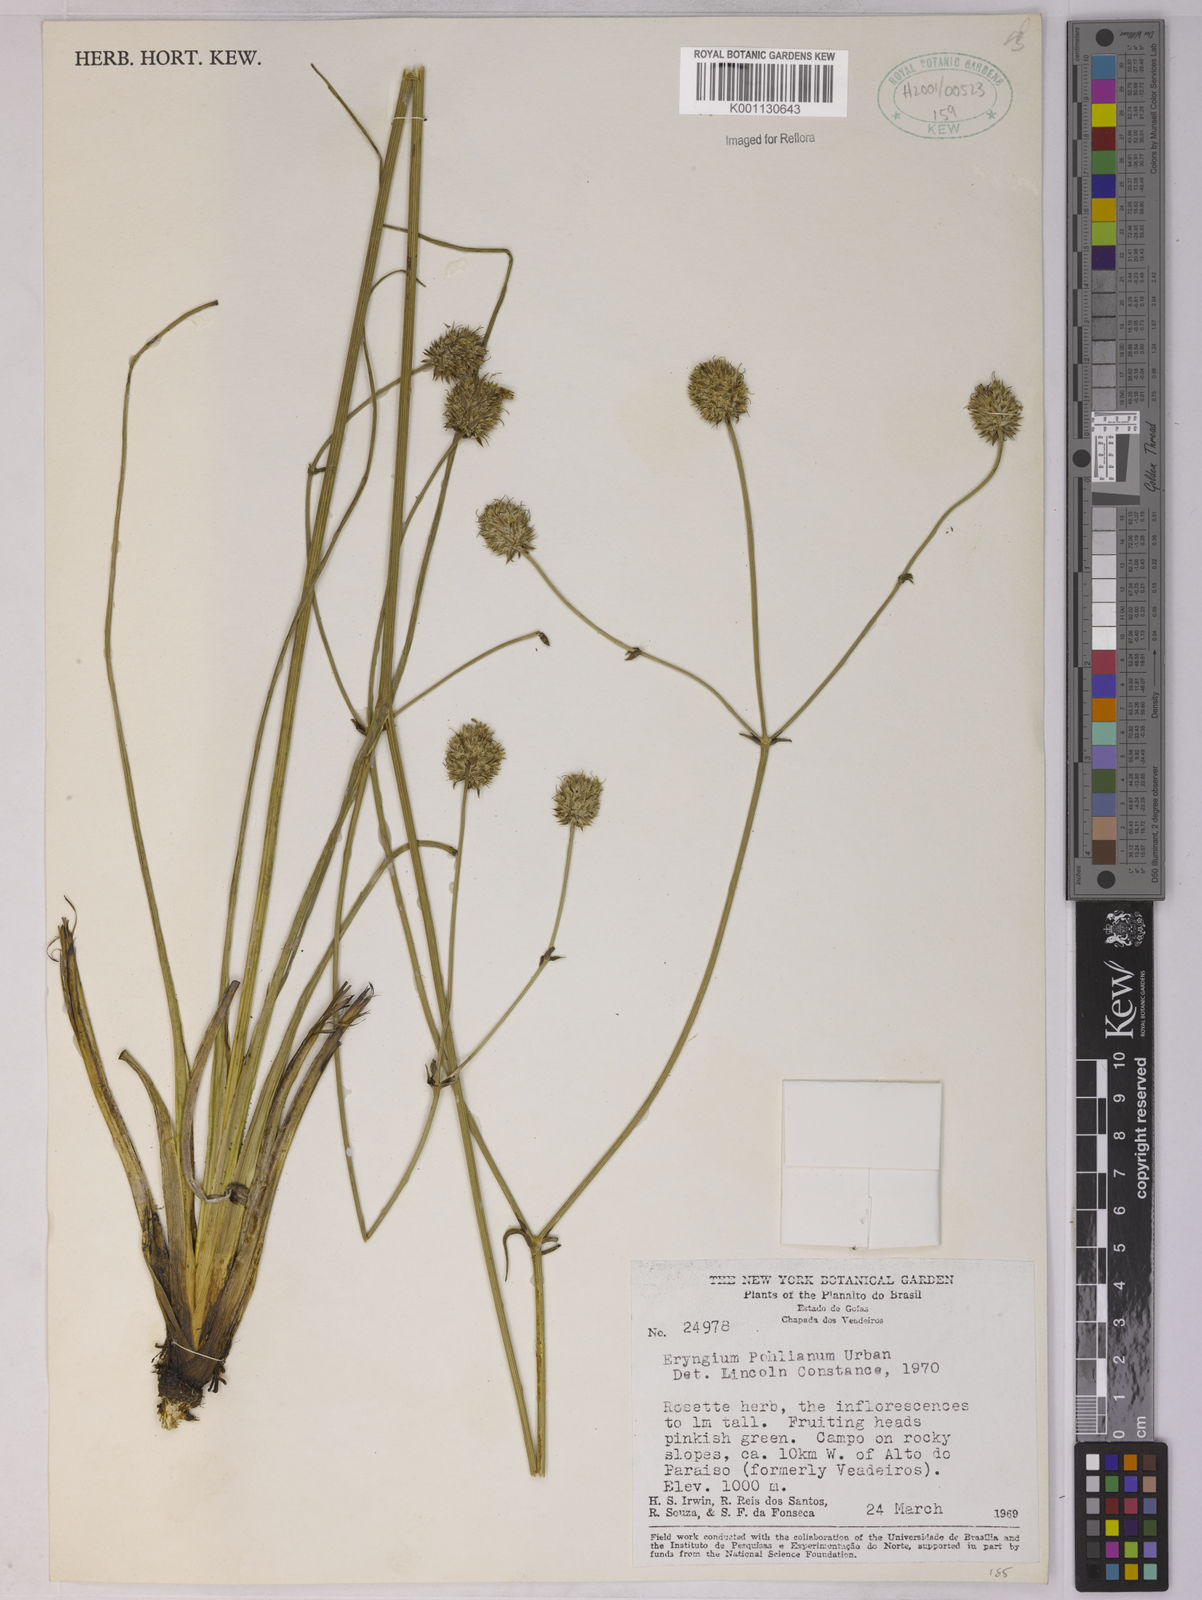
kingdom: Plantae
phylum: Tracheophyta
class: Magnoliopsida
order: Apiales
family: Apiaceae
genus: Eryngium
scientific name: Eryngium pohlianum
